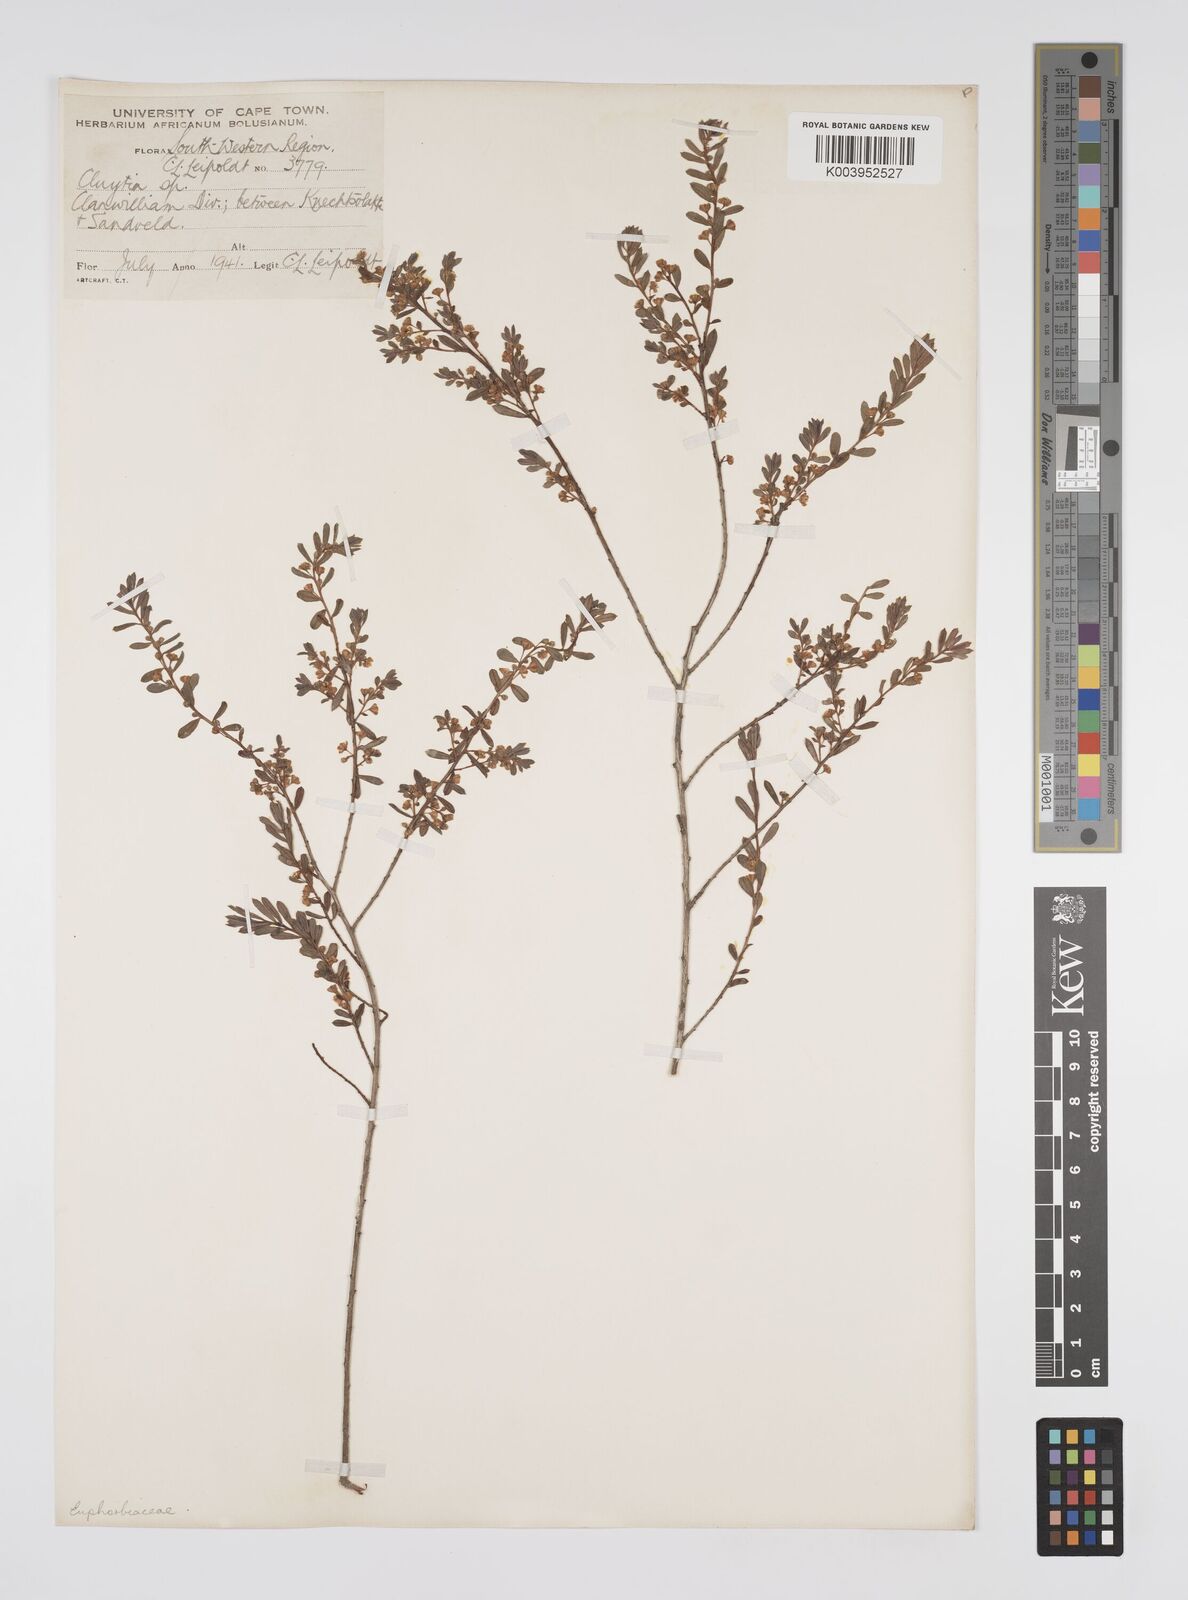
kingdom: Plantae
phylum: Tracheophyta
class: Magnoliopsida
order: Malpighiales
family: Peraceae
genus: Clutia
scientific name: Clutia
